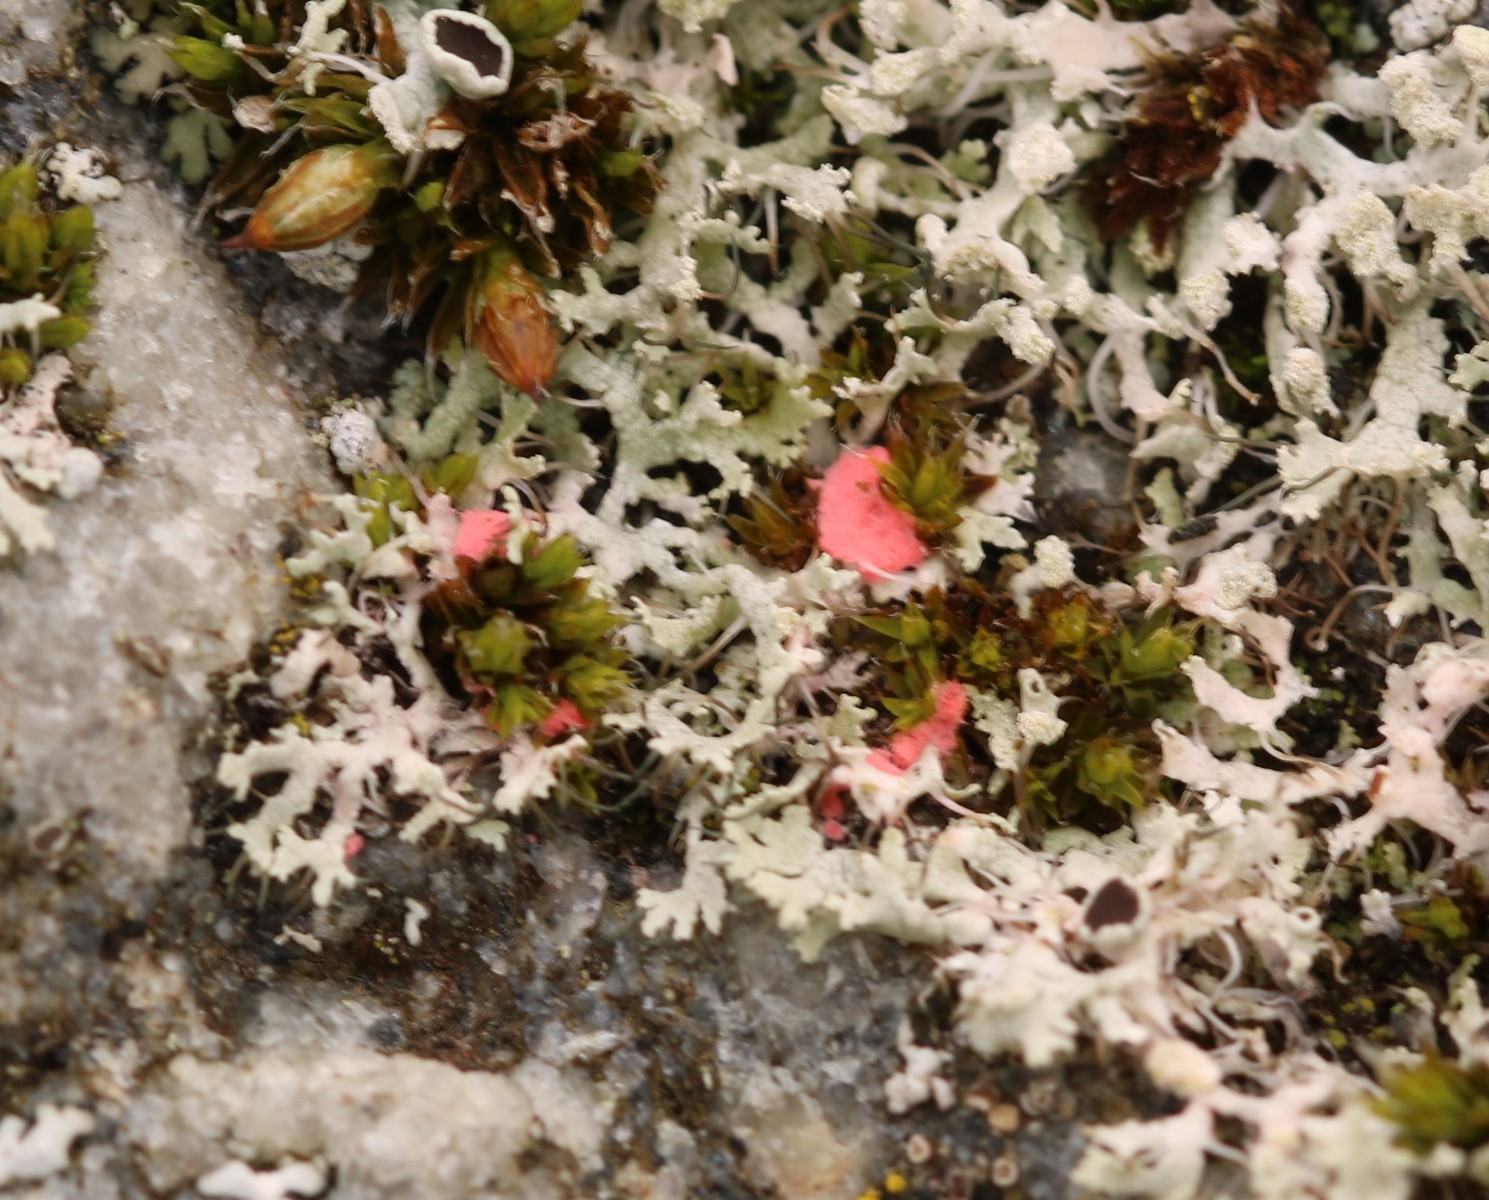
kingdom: Fungi
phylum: Ascomycota
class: Sordariomycetes
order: Hypocreales
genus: Illosporiopsis
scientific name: Illosporiopsis christiansenii
